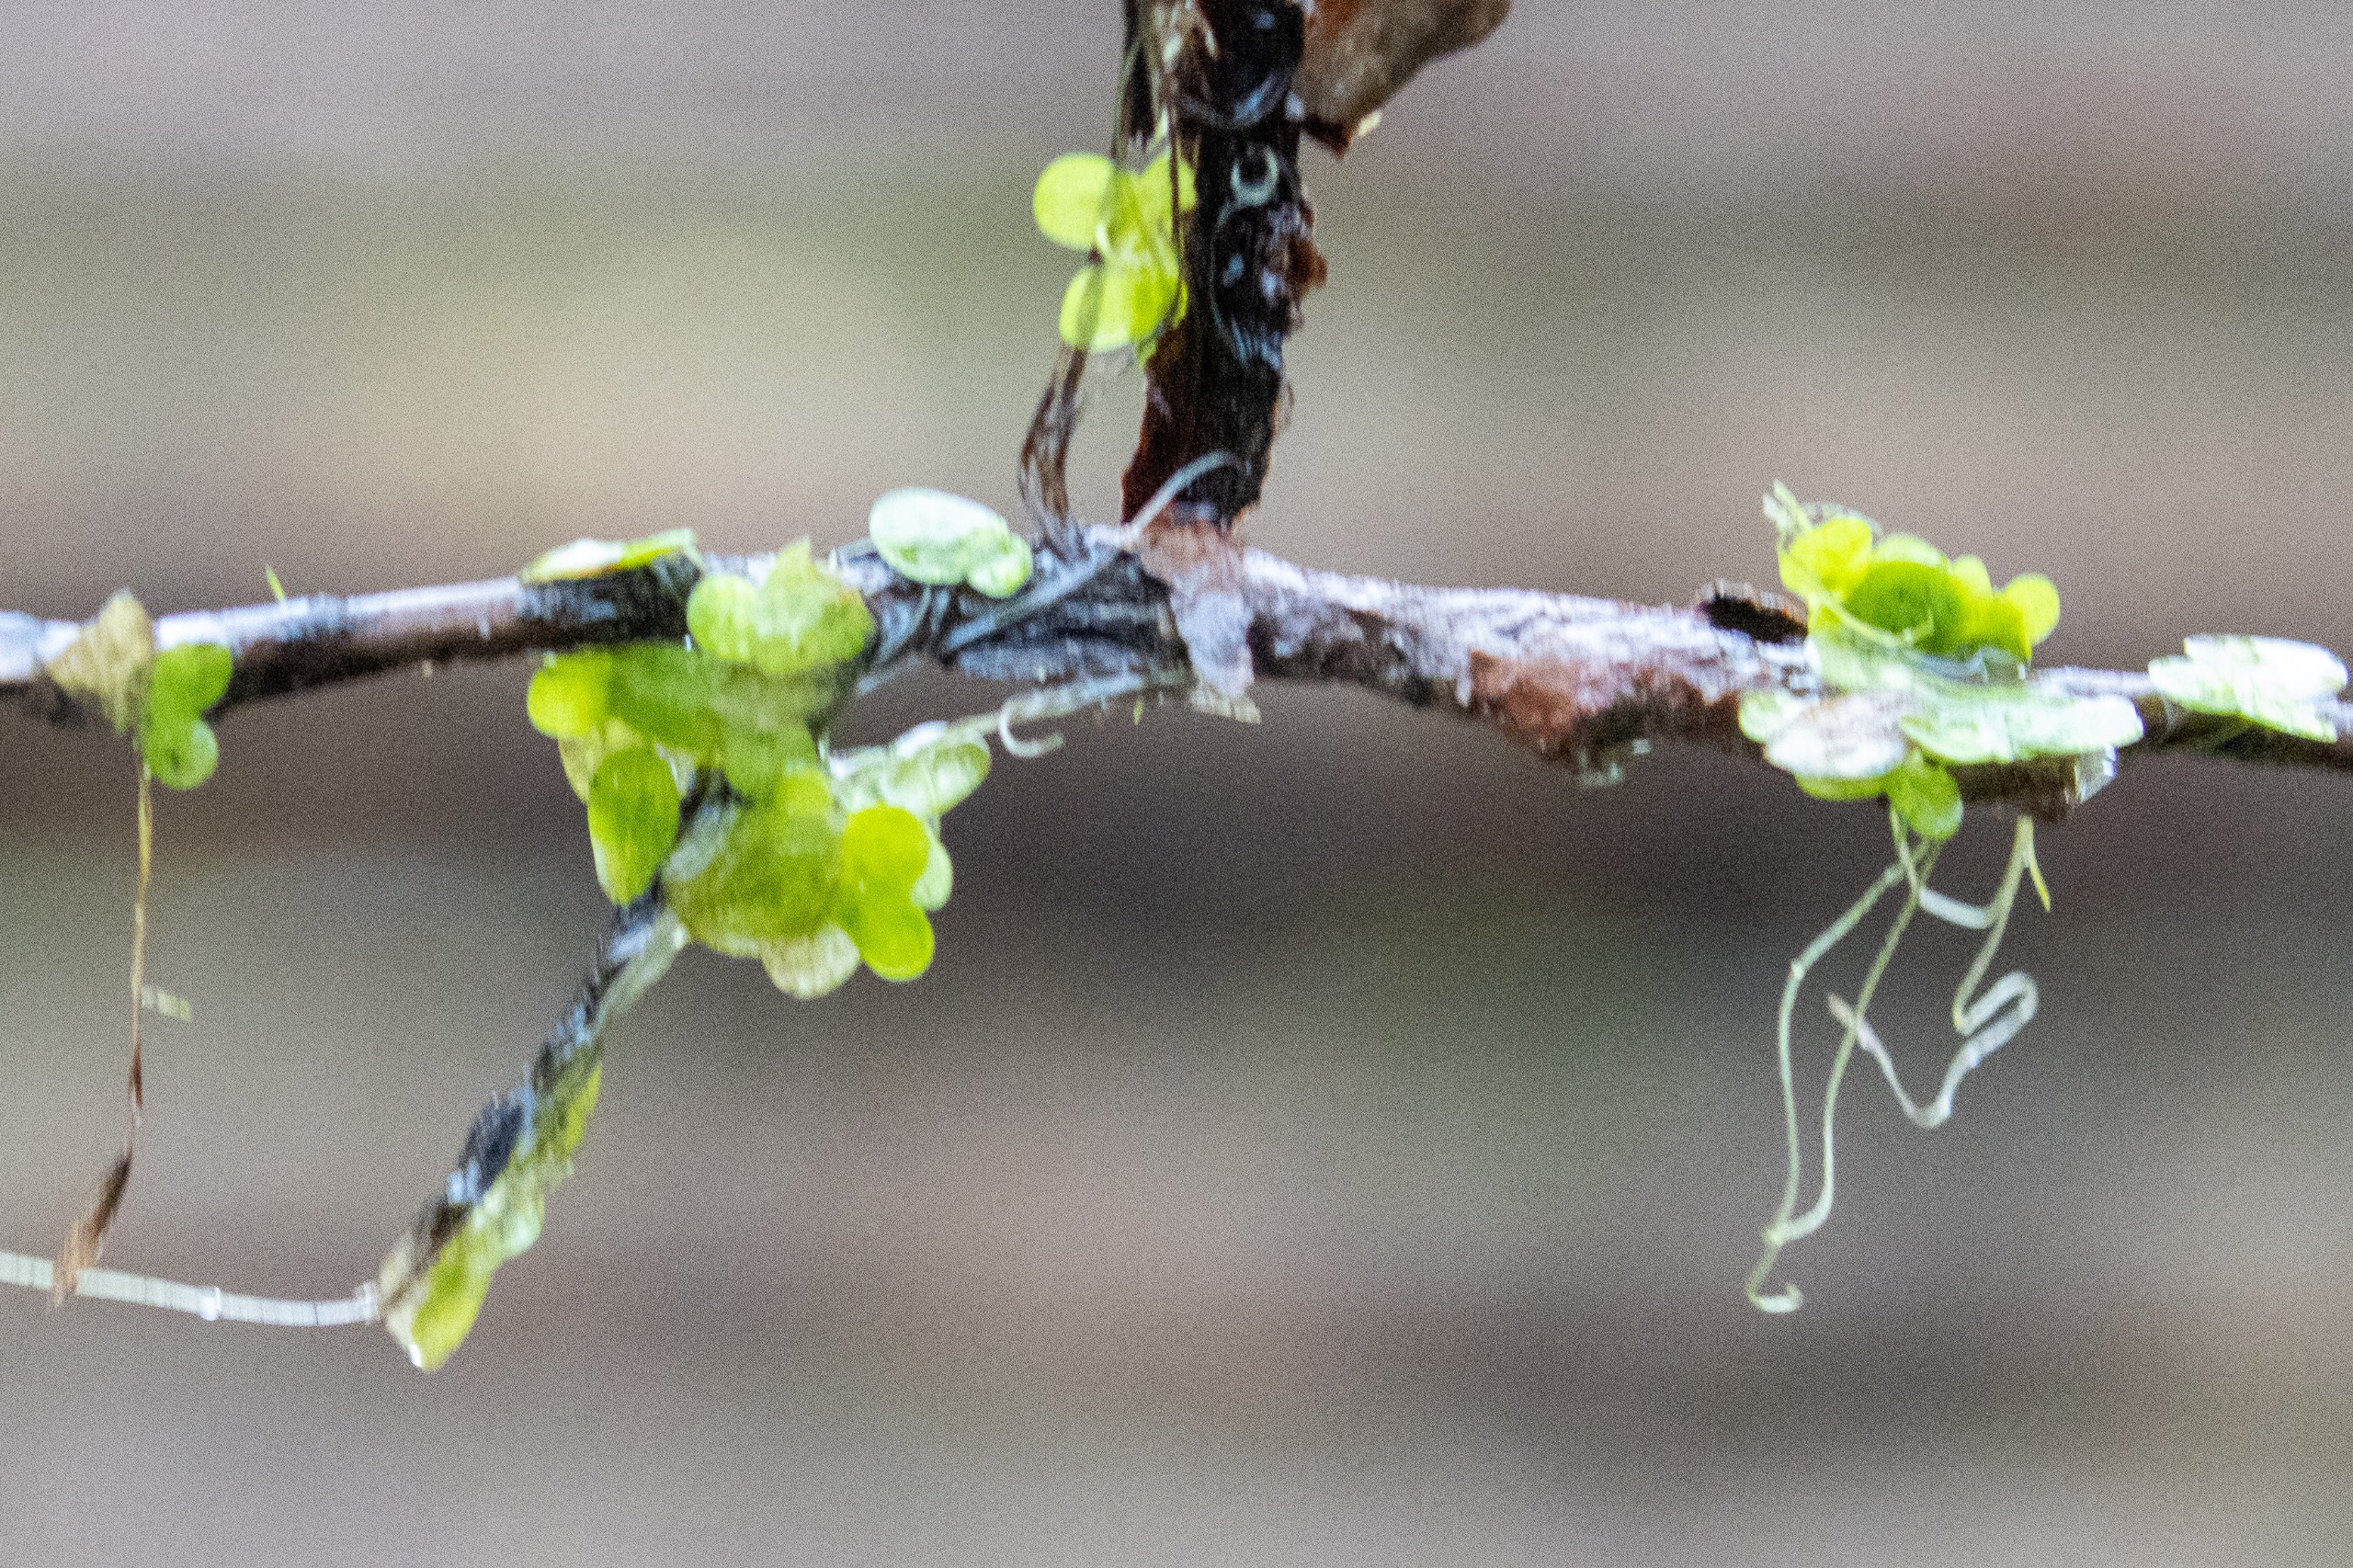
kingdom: Plantae
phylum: Tracheophyta
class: Liliopsida
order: Alismatales
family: Araceae
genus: Lemna
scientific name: Lemna minor
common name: Liden andemad
